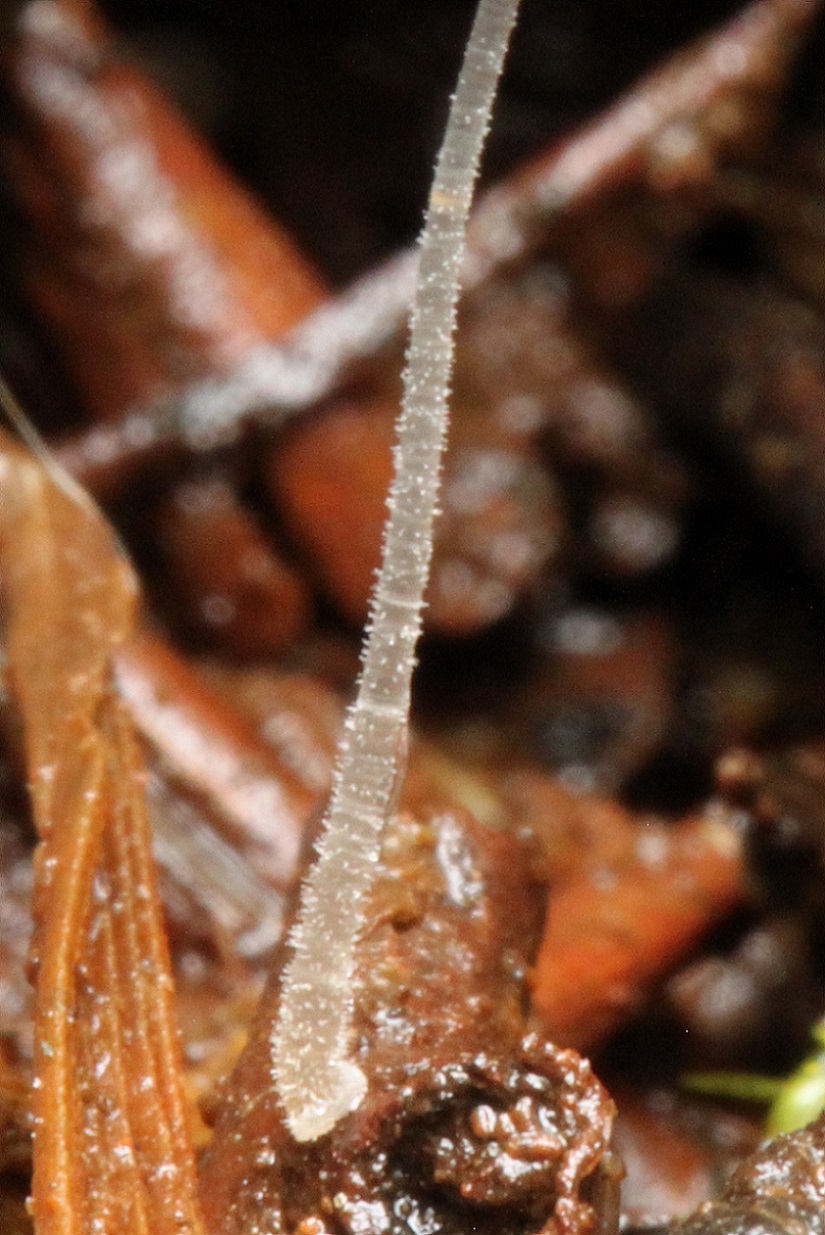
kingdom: Fungi
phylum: Basidiomycota
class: Agaricomycetes
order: Agaricales
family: Mycenaceae
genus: Mycena
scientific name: Mycena tenerrima
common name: pudret huesvamp
